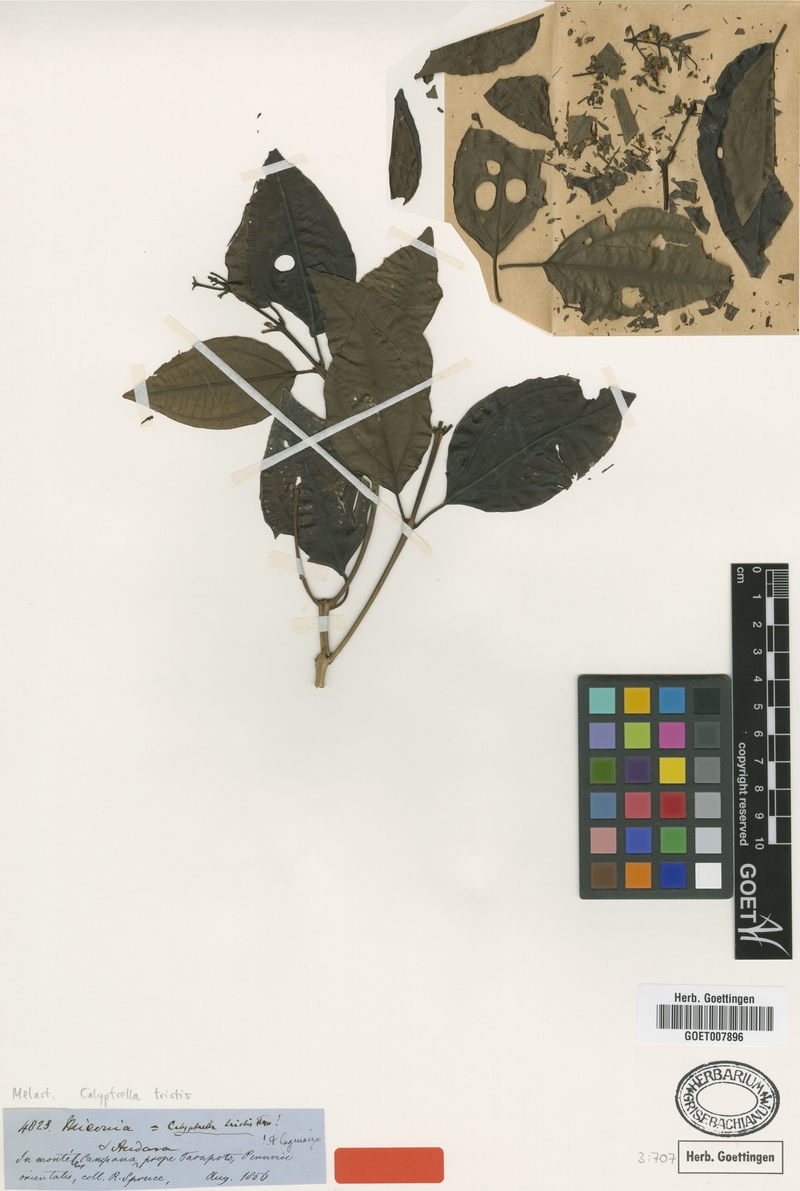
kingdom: Plantae
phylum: Tracheophyta
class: Magnoliopsida
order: Myrtales
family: Melastomataceae
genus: Graffenrieda
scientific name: Graffenrieda tristis
